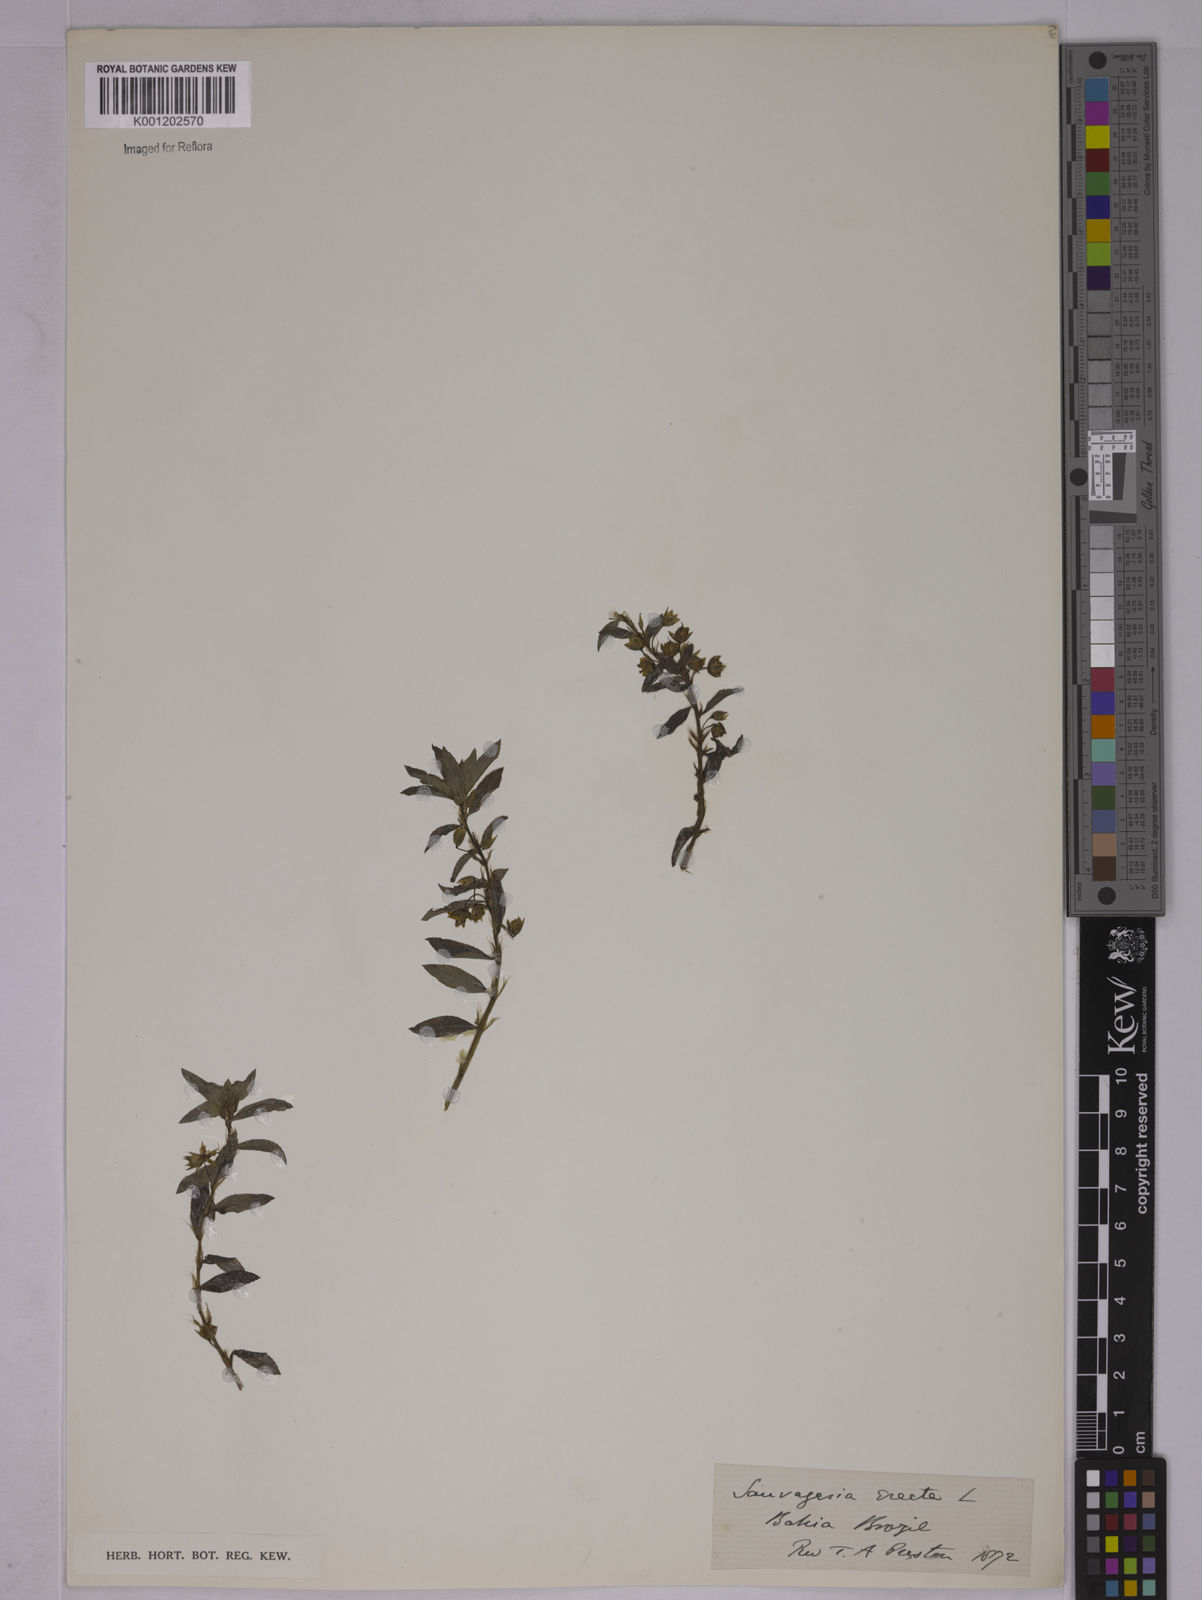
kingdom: Plantae
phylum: Tracheophyta
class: Magnoliopsida
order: Malpighiales
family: Ochnaceae
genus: Sauvagesia
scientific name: Sauvagesia erecta
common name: Creole tea
